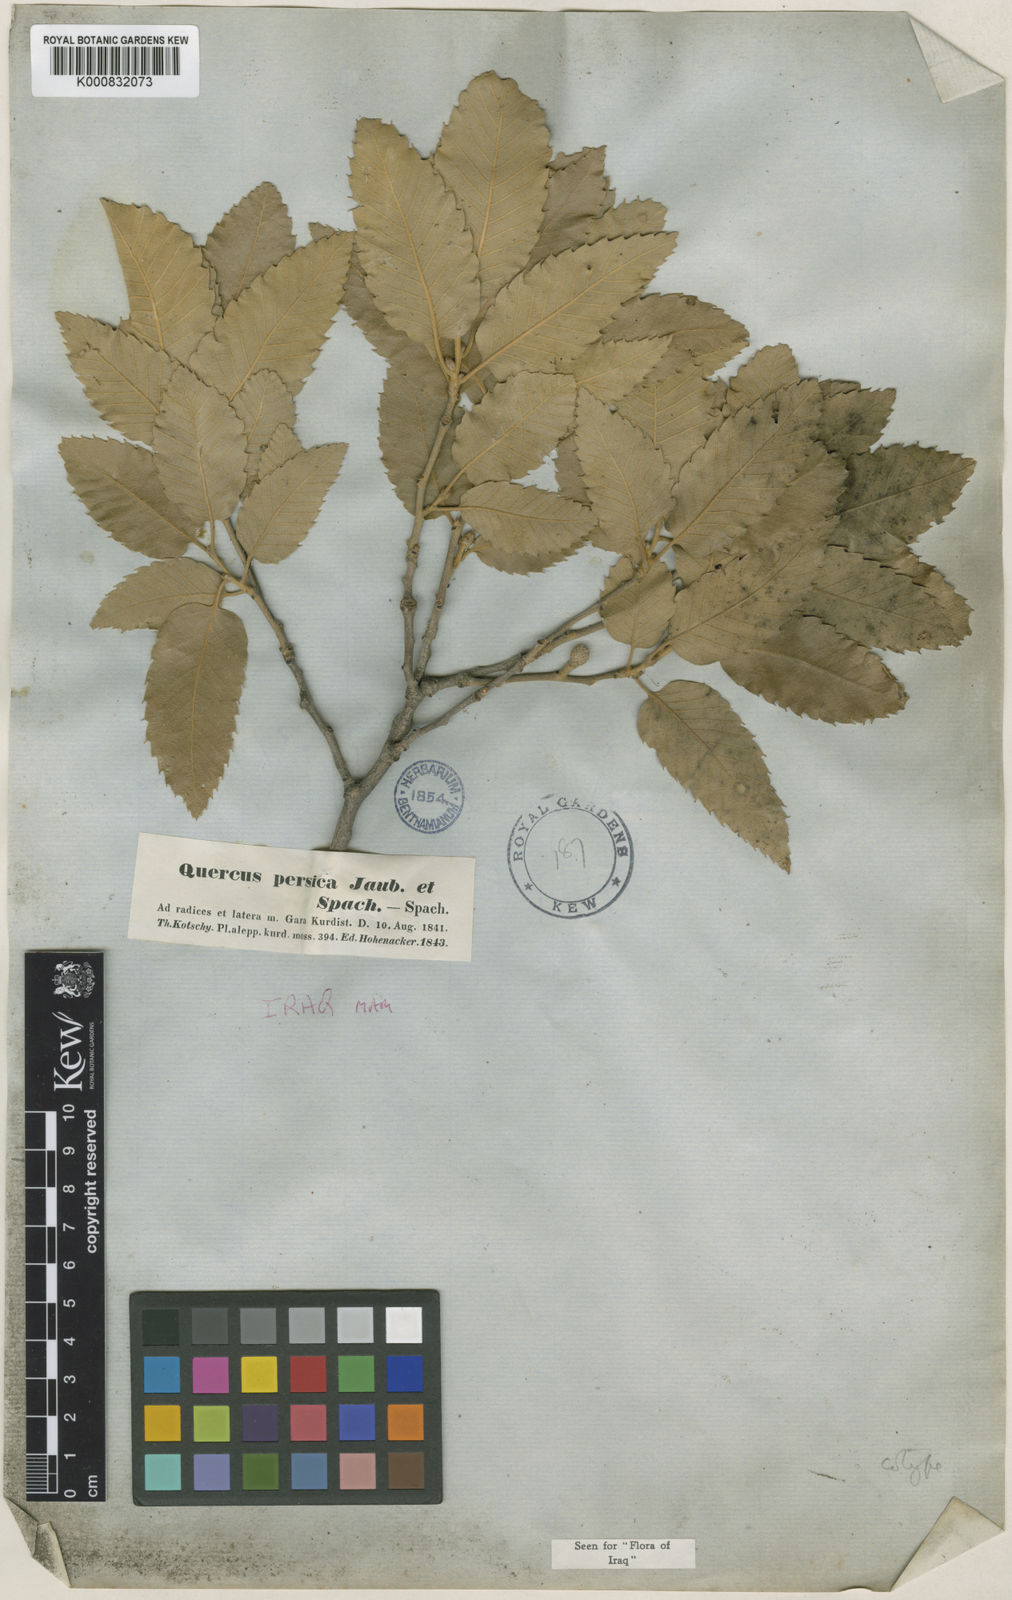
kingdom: Plantae
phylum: Tracheophyta
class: Magnoliopsida
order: Fagales
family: Fagaceae
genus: Quercus
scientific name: Quercus cerris
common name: Turkey oak
